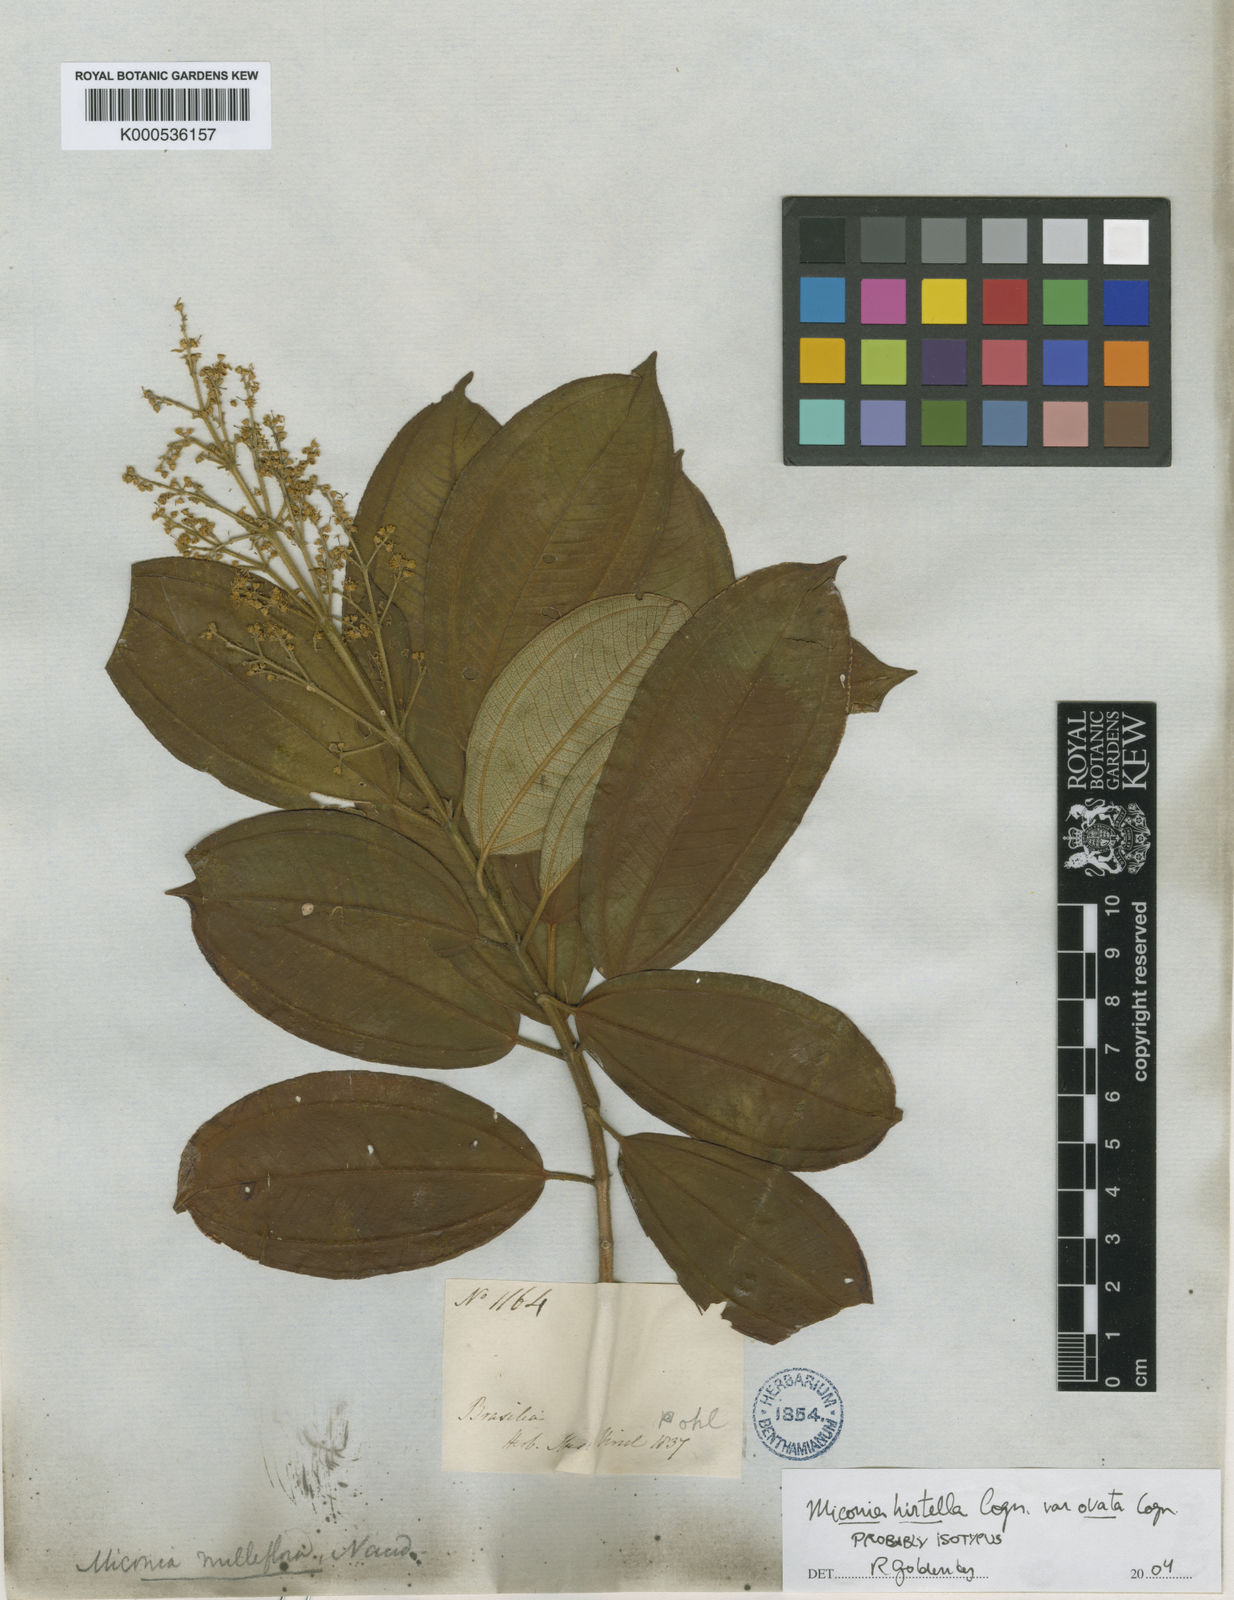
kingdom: Plantae
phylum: Tracheophyta
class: Magnoliopsida
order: Myrtales
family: Melastomataceae
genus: Miconia
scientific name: Miconia hirta
